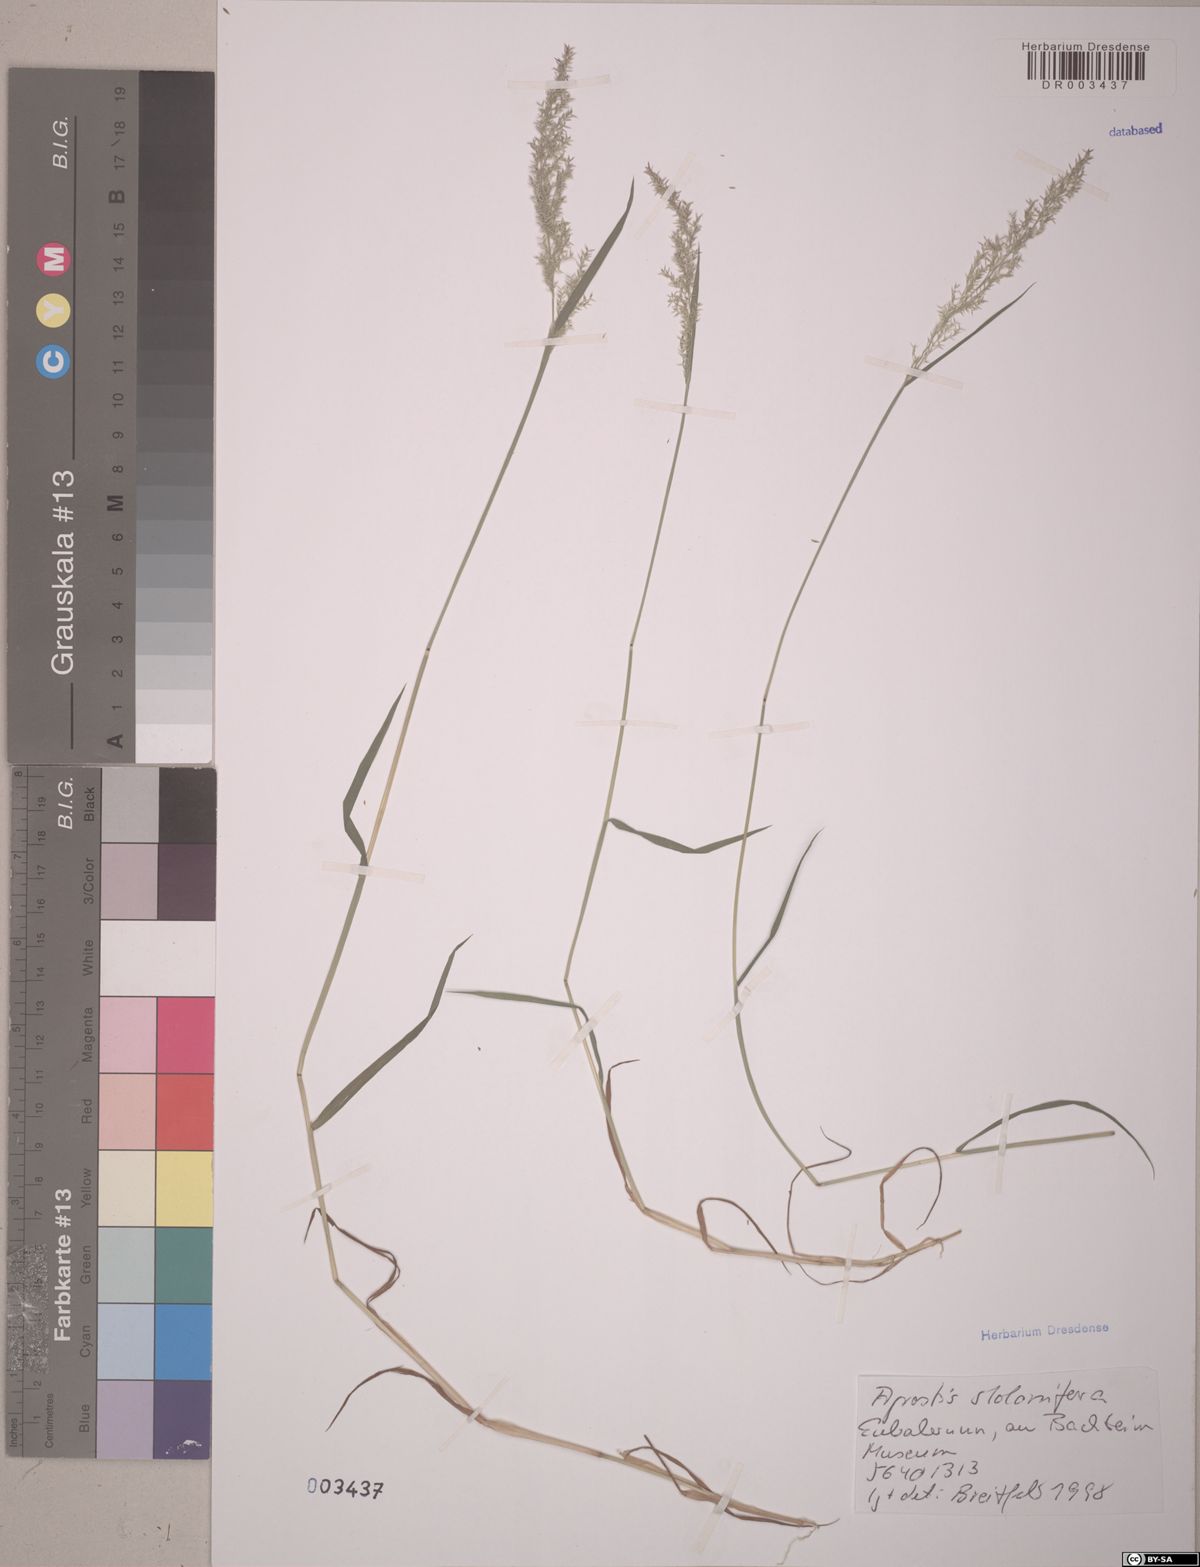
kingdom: Plantae
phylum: Tracheophyta
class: Liliopsida
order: Poales
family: Poaceae
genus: Agrostis
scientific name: Agrostis stolonifera
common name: Creeping bentgrass
